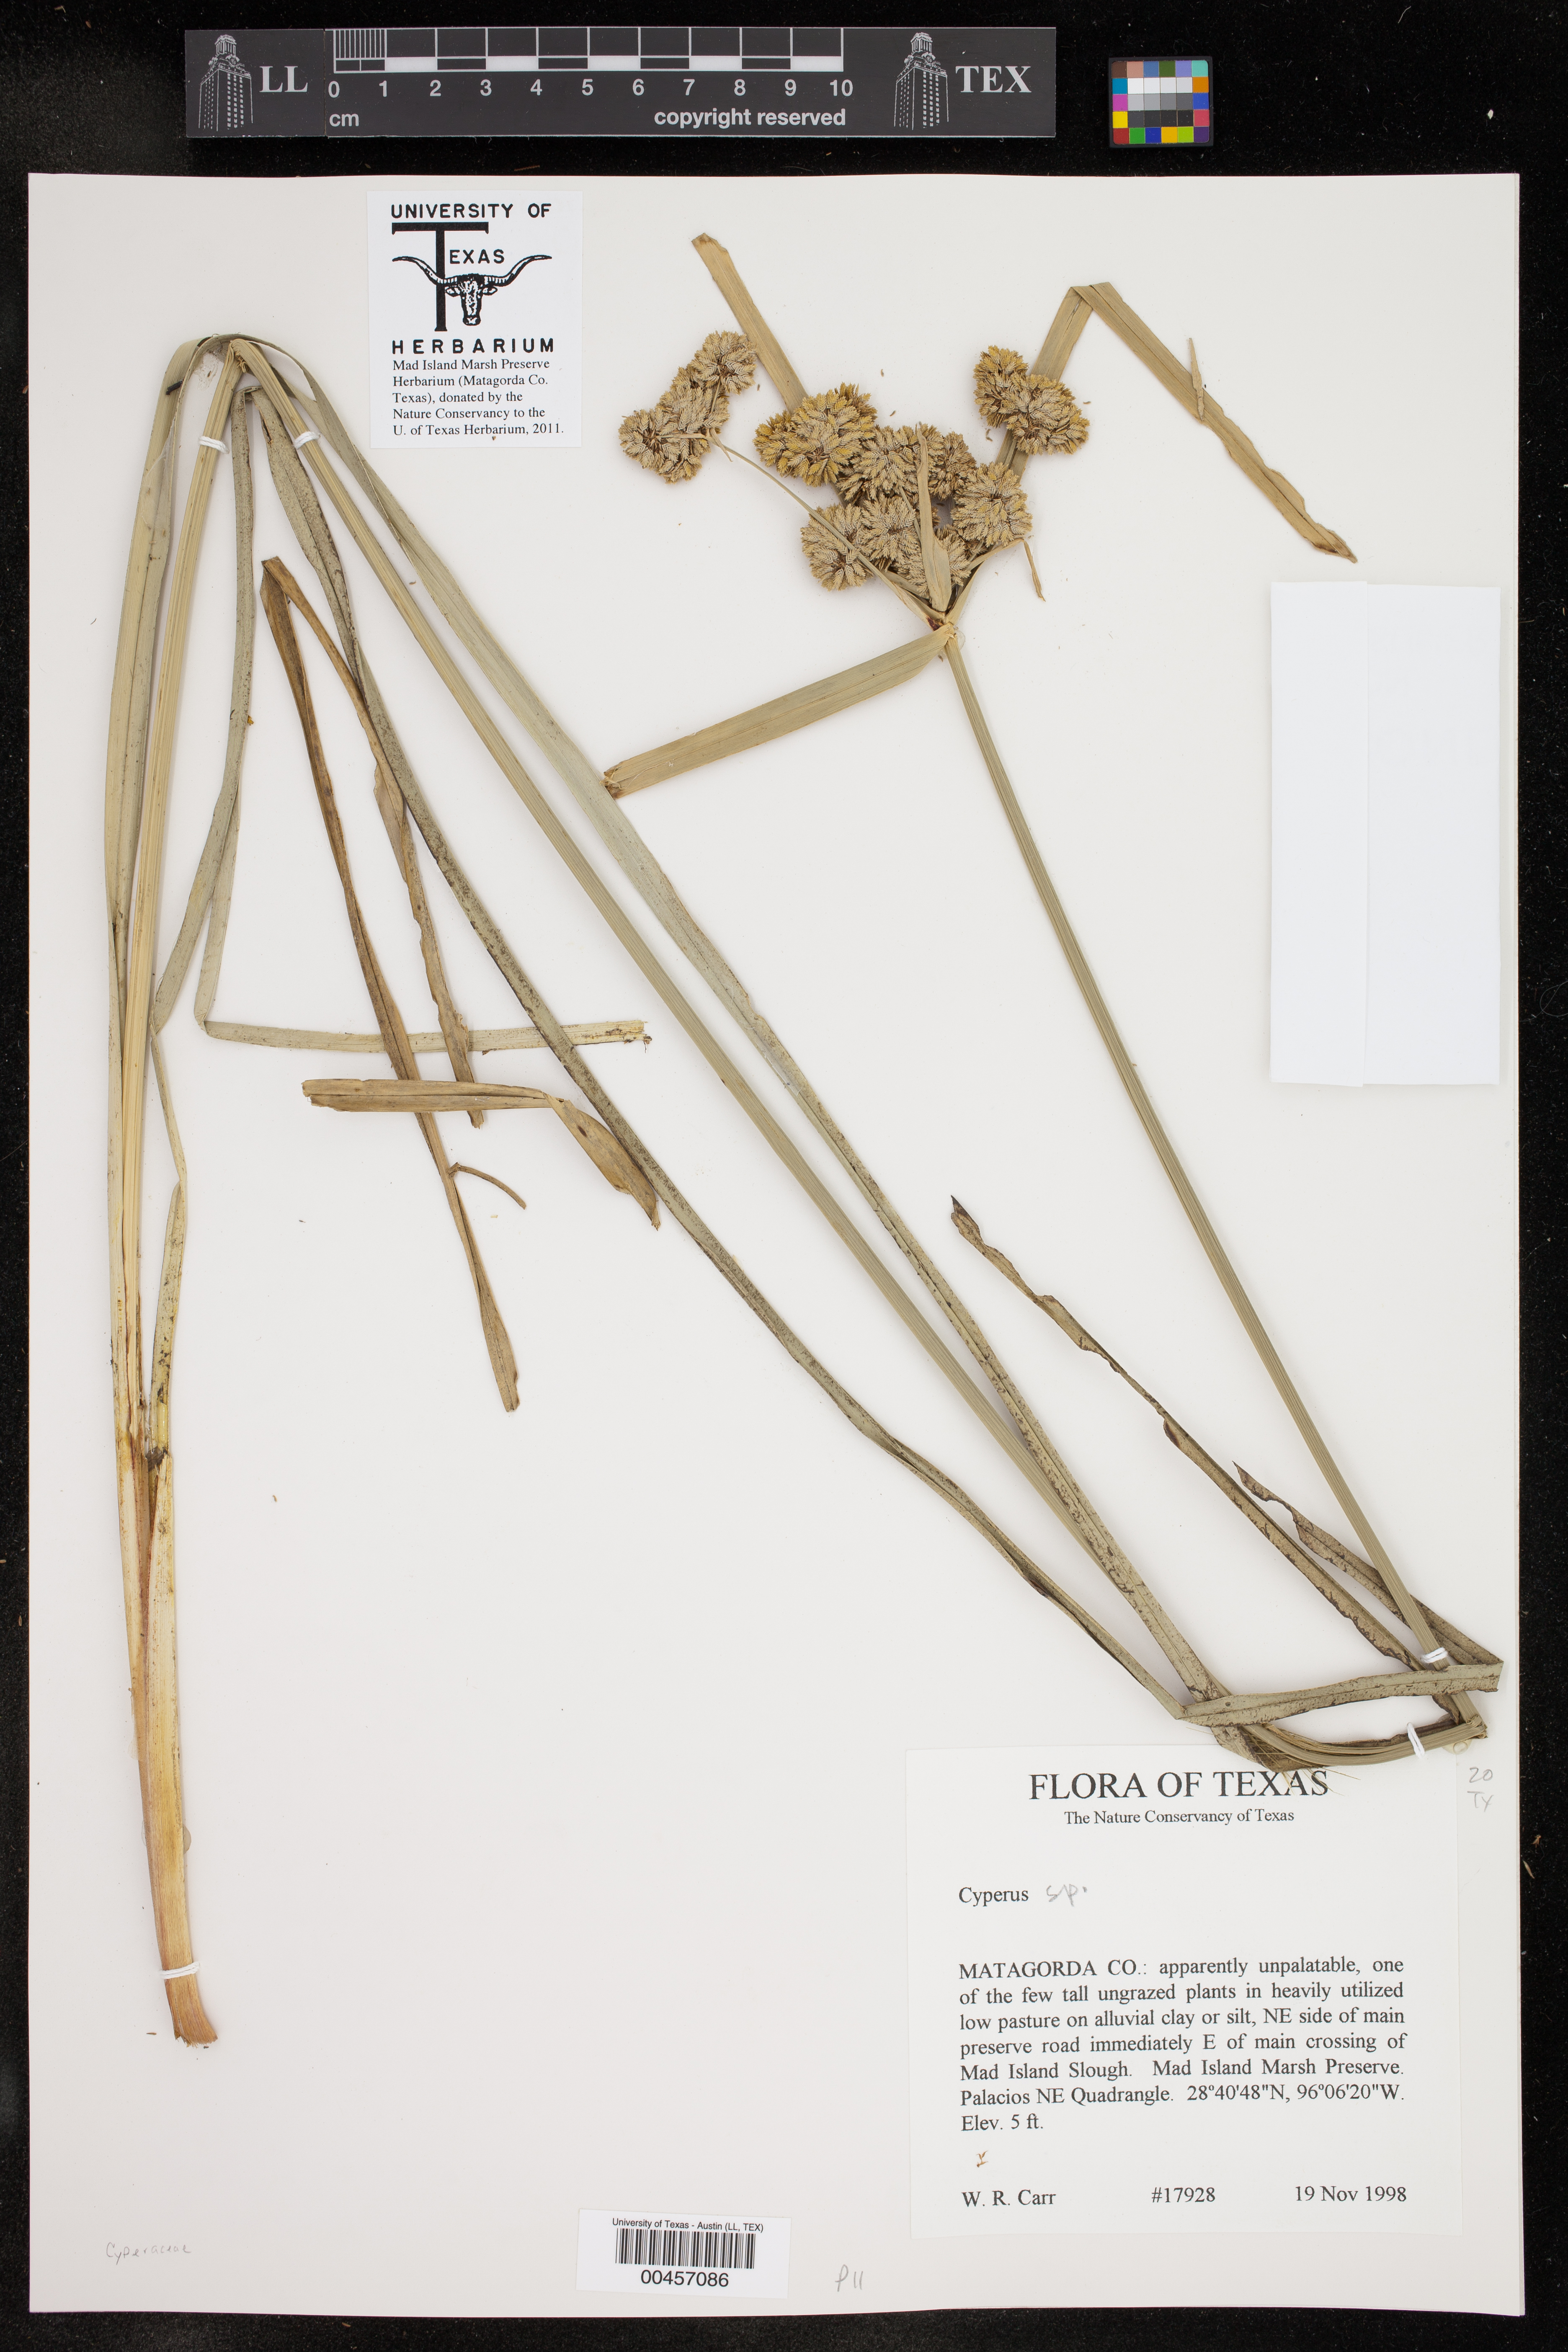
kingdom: Plantae
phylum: Tracheophyta
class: Liliopsida
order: Poales
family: Cyperaceae
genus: Cyperus
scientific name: Cyperus
